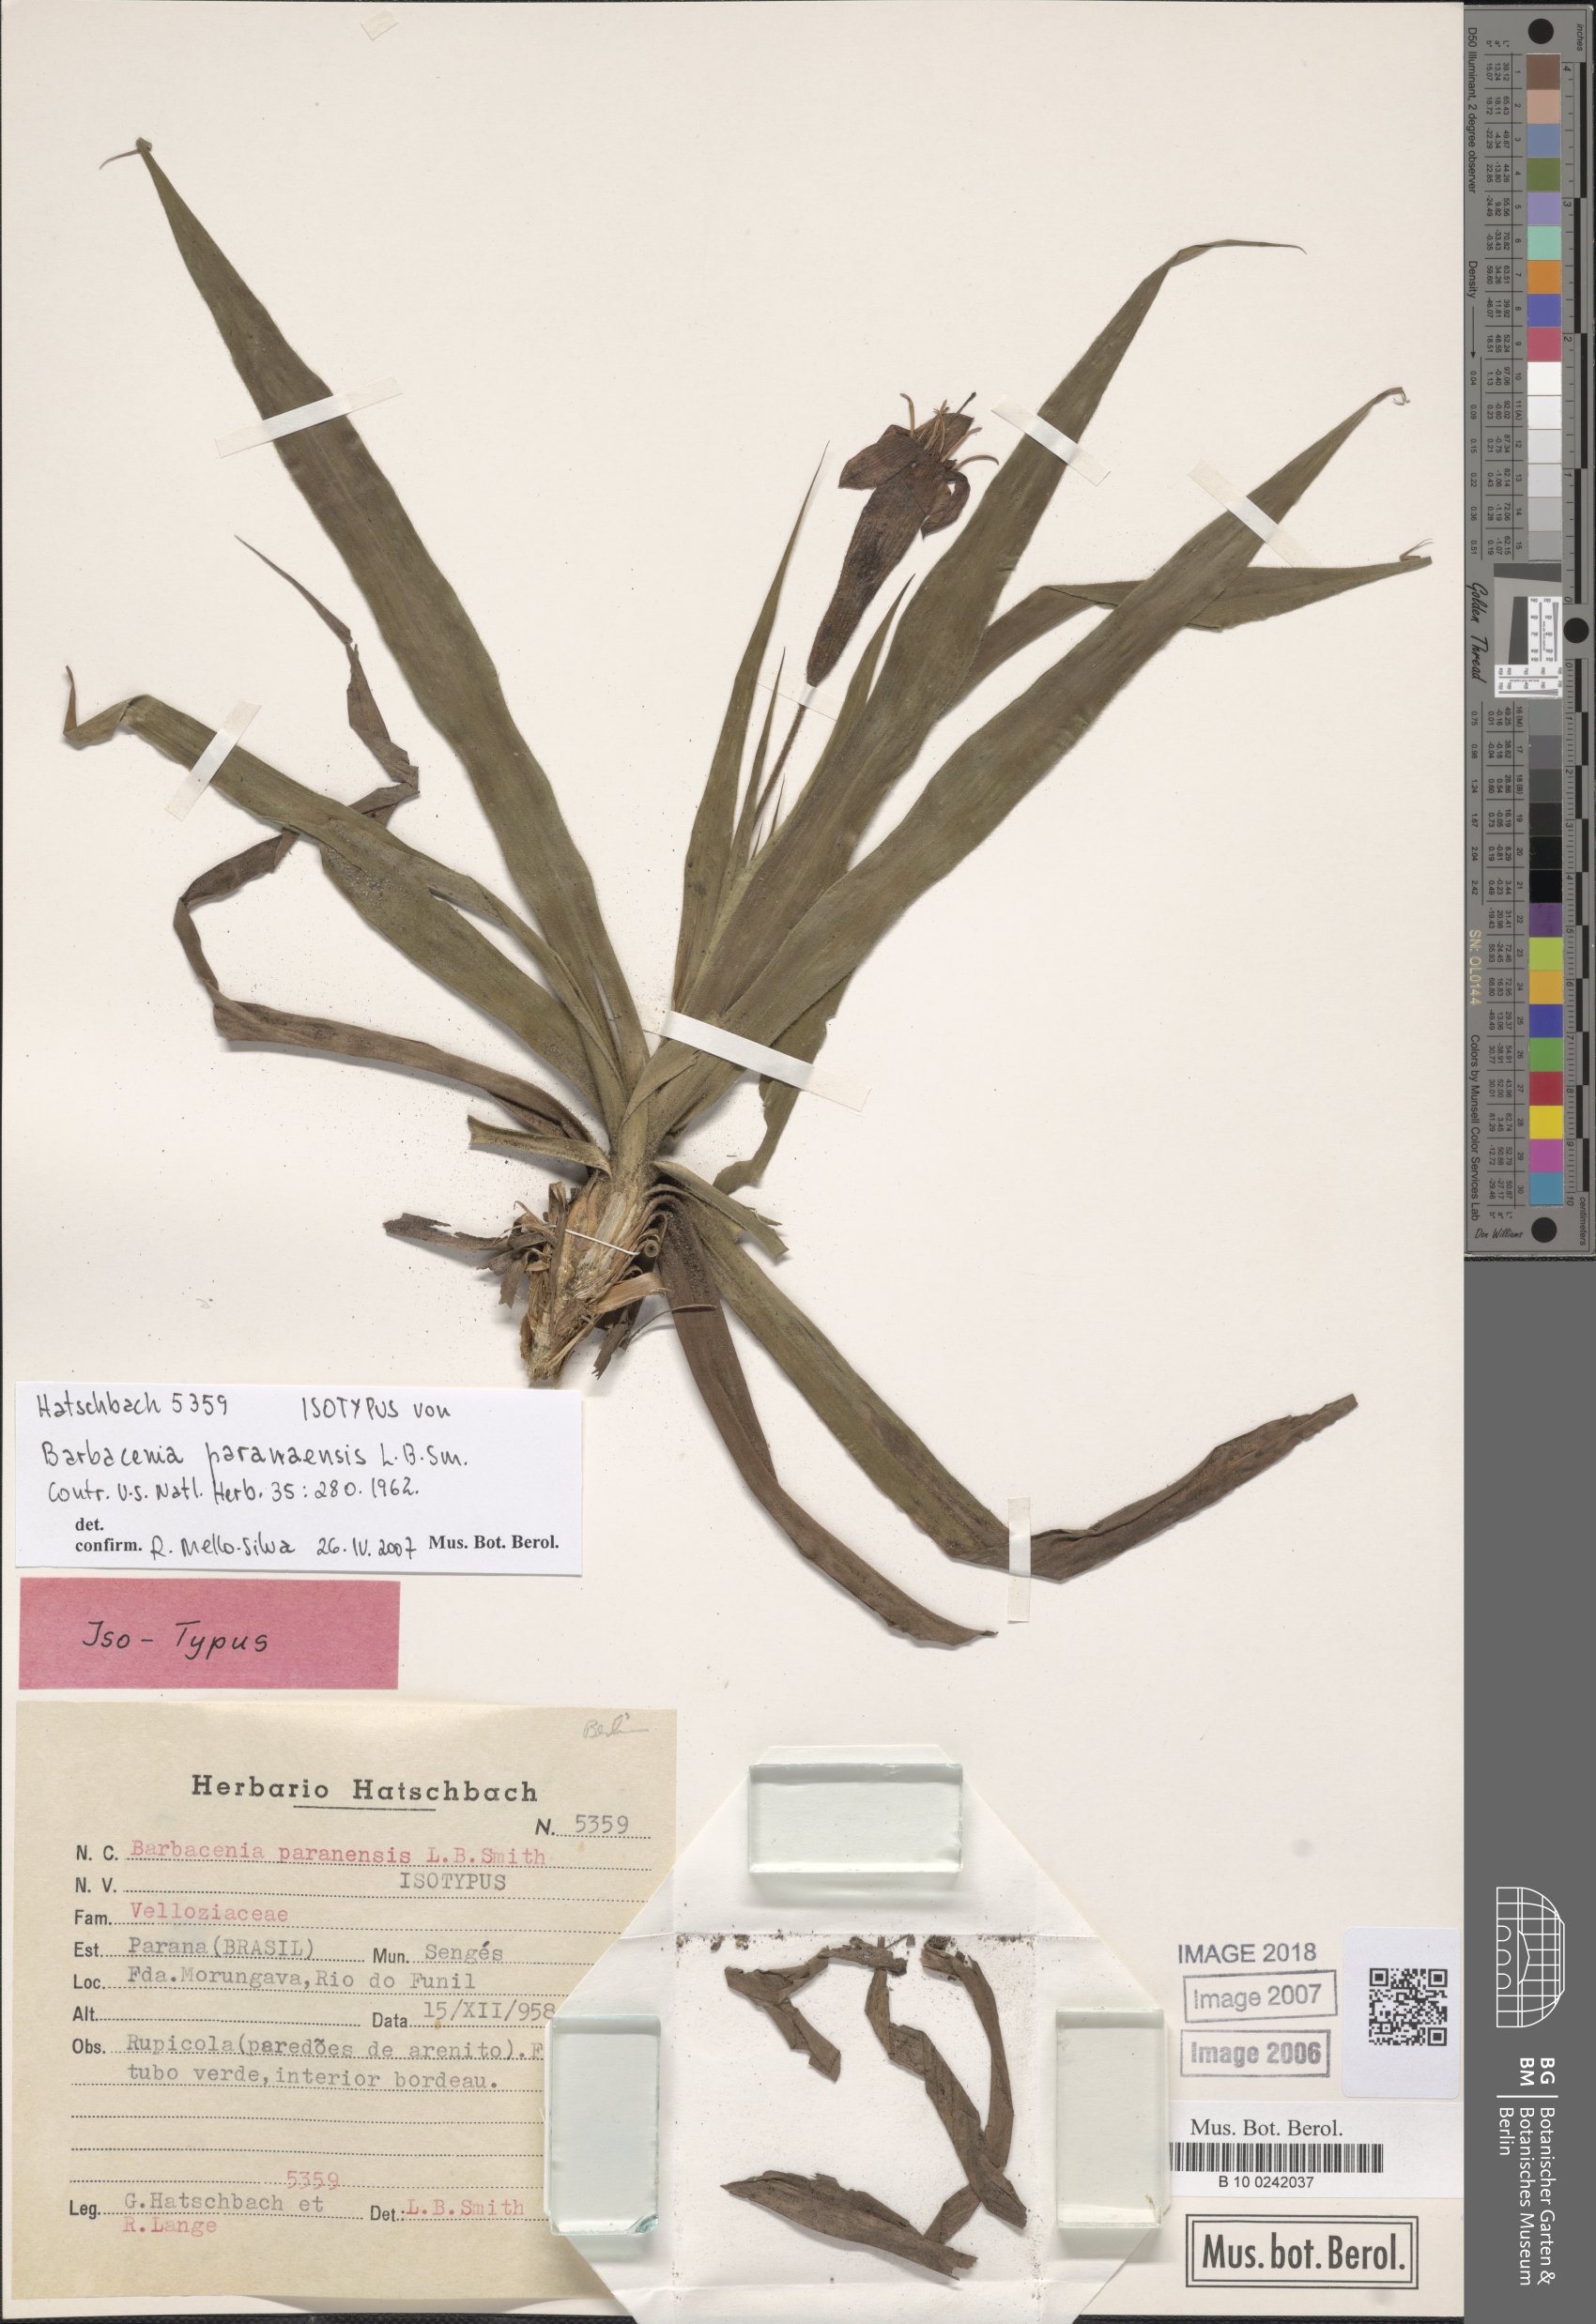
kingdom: Plantae
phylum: Tracheophyta
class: Liliopsida
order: Pandanales
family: Velloziaceae
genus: Barbacenia
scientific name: Barbacenia paranaensis
